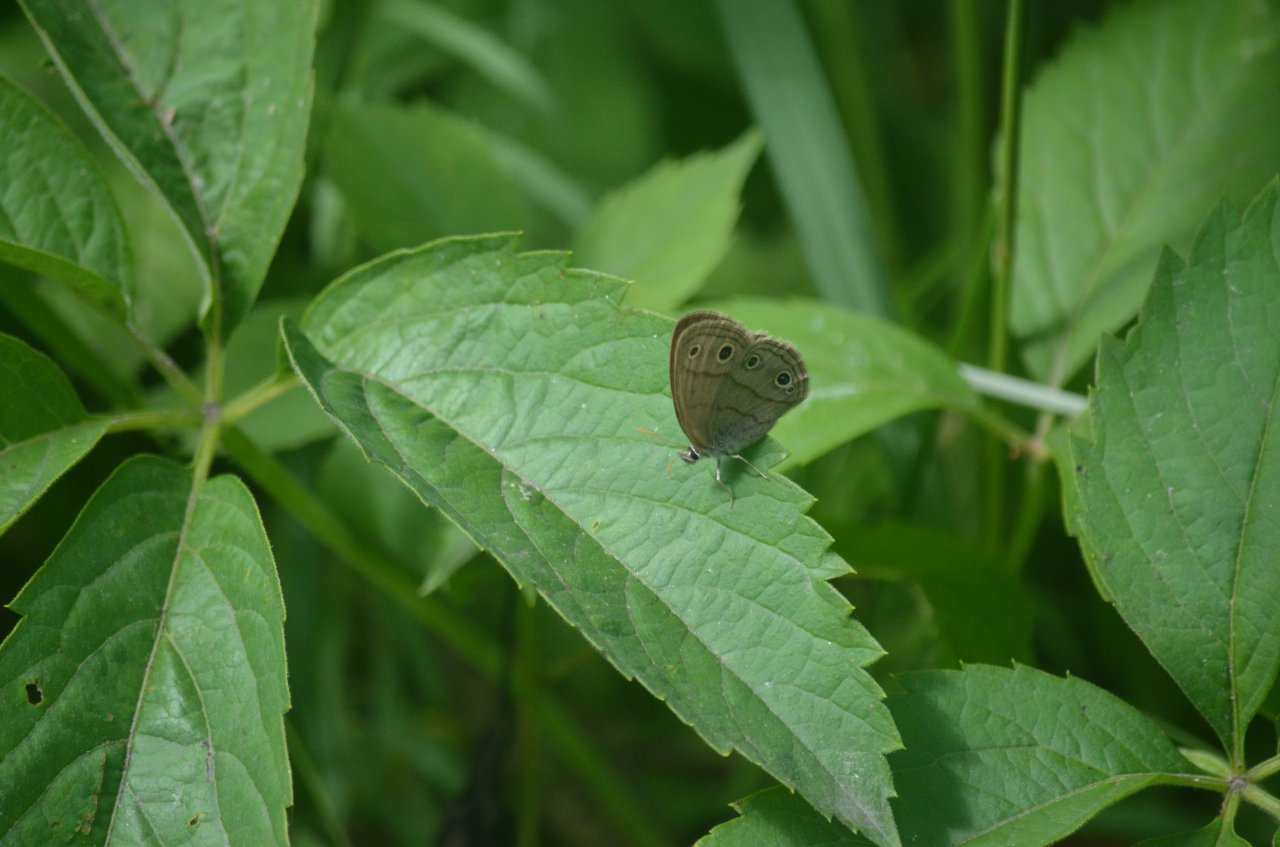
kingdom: Animalia
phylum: Arthropoda
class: Insecta
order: Lepidoptera
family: Nymphalidae
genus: Euptychia
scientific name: Euptychia cymela
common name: Little Wood Satyr
